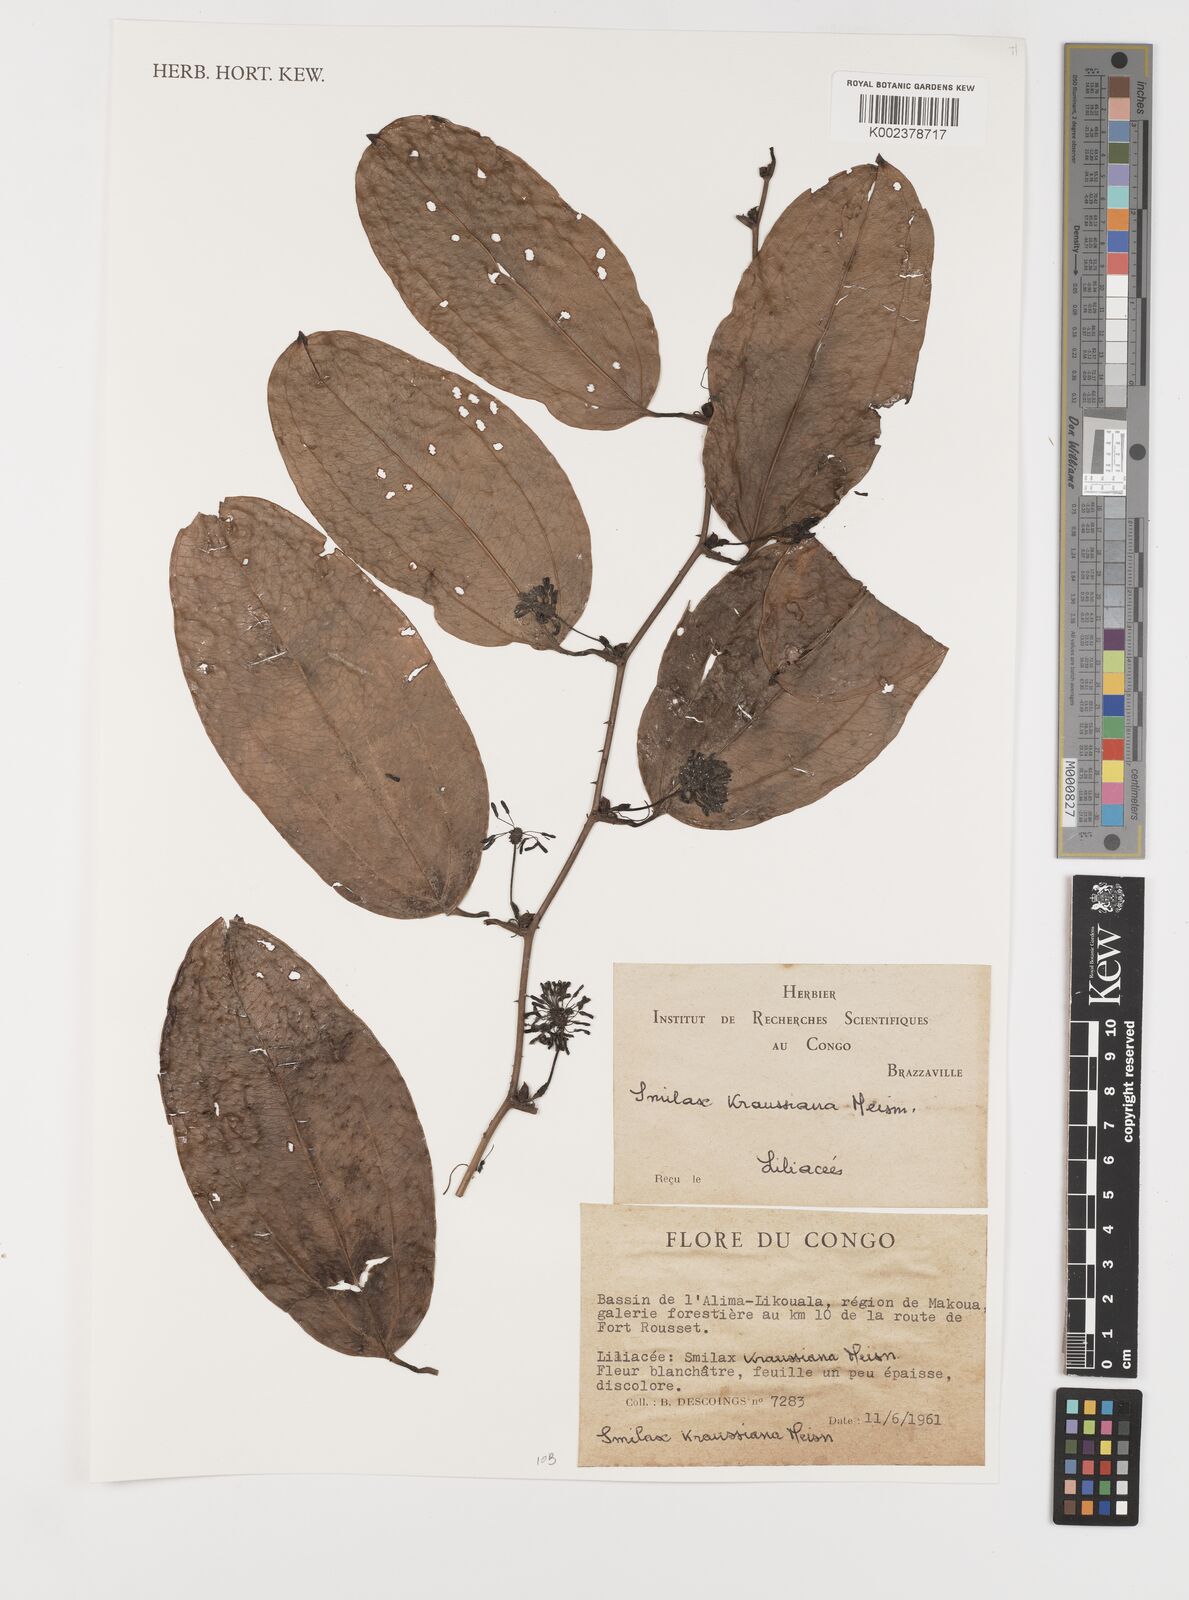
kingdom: Plantae
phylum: Tracheophyta
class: Liliopsida
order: Liliales
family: Smilacaceae
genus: Smilax
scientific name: Smilax anceps
